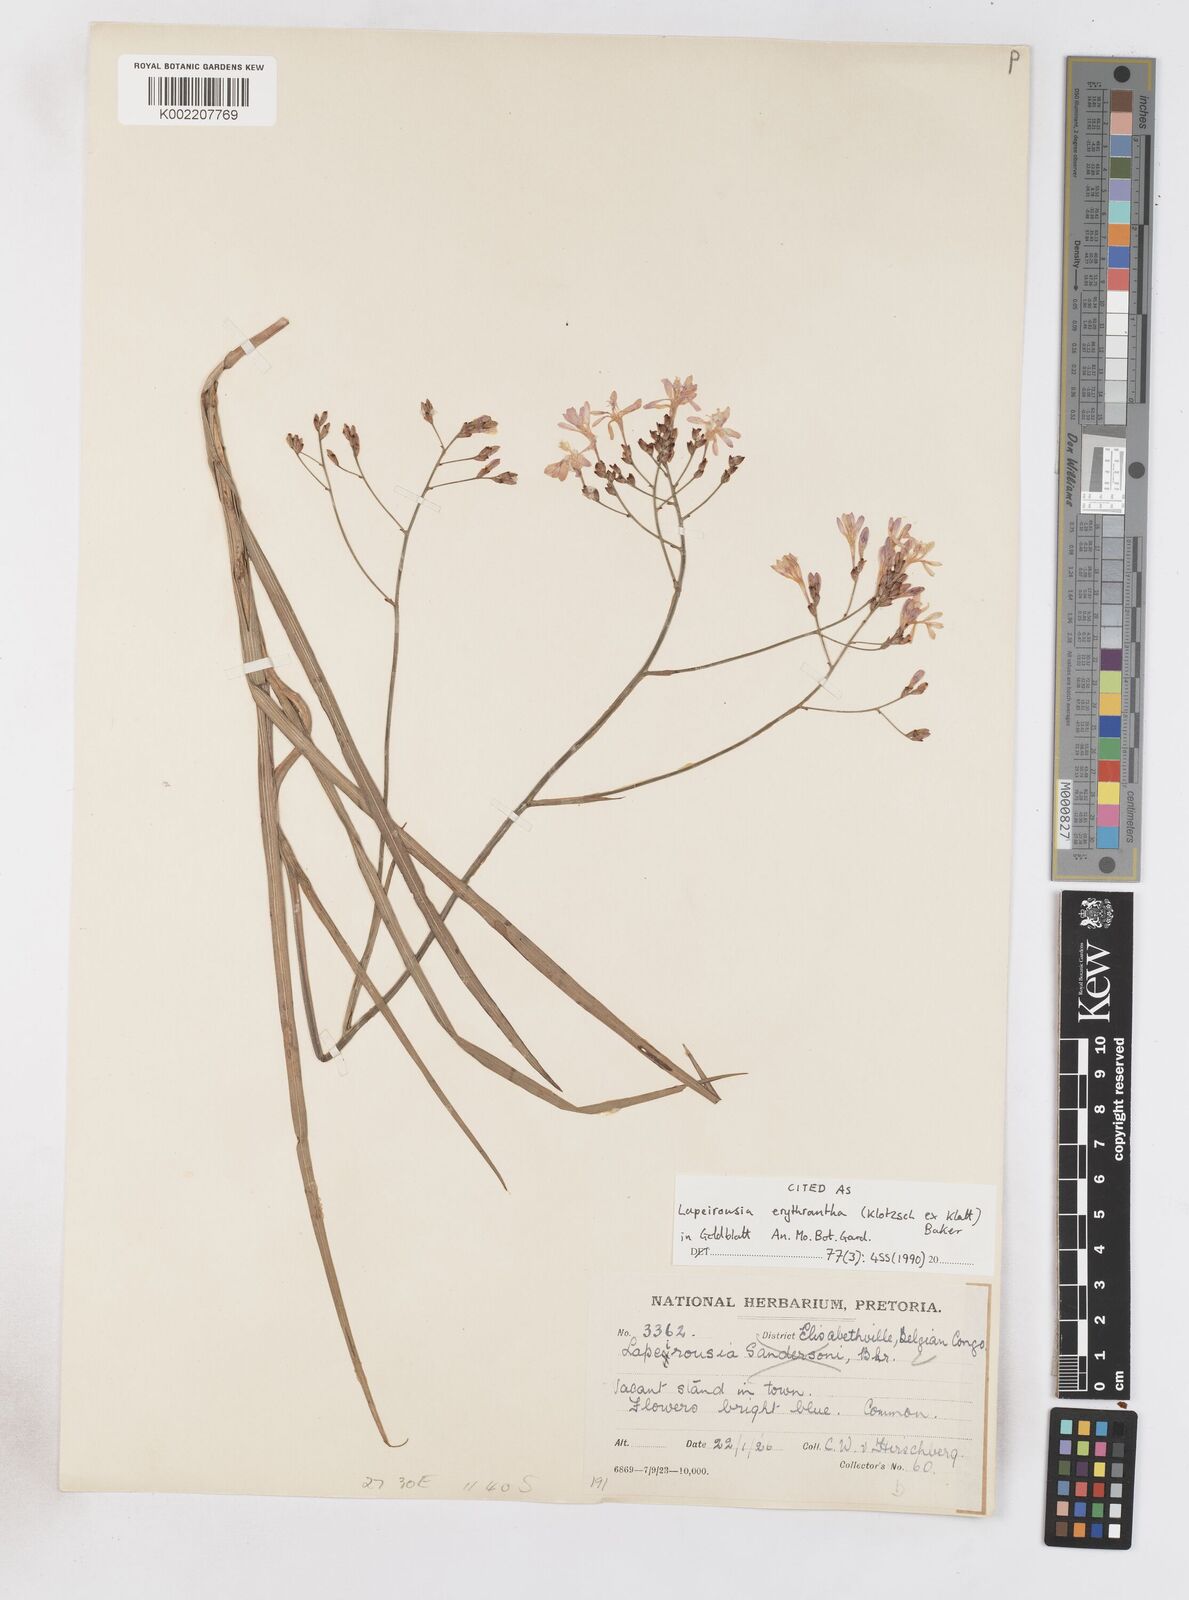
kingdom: Plantae
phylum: Tracheophyta
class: Liliopsida
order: Asparagales
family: Iridaceae
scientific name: Iridaceae
